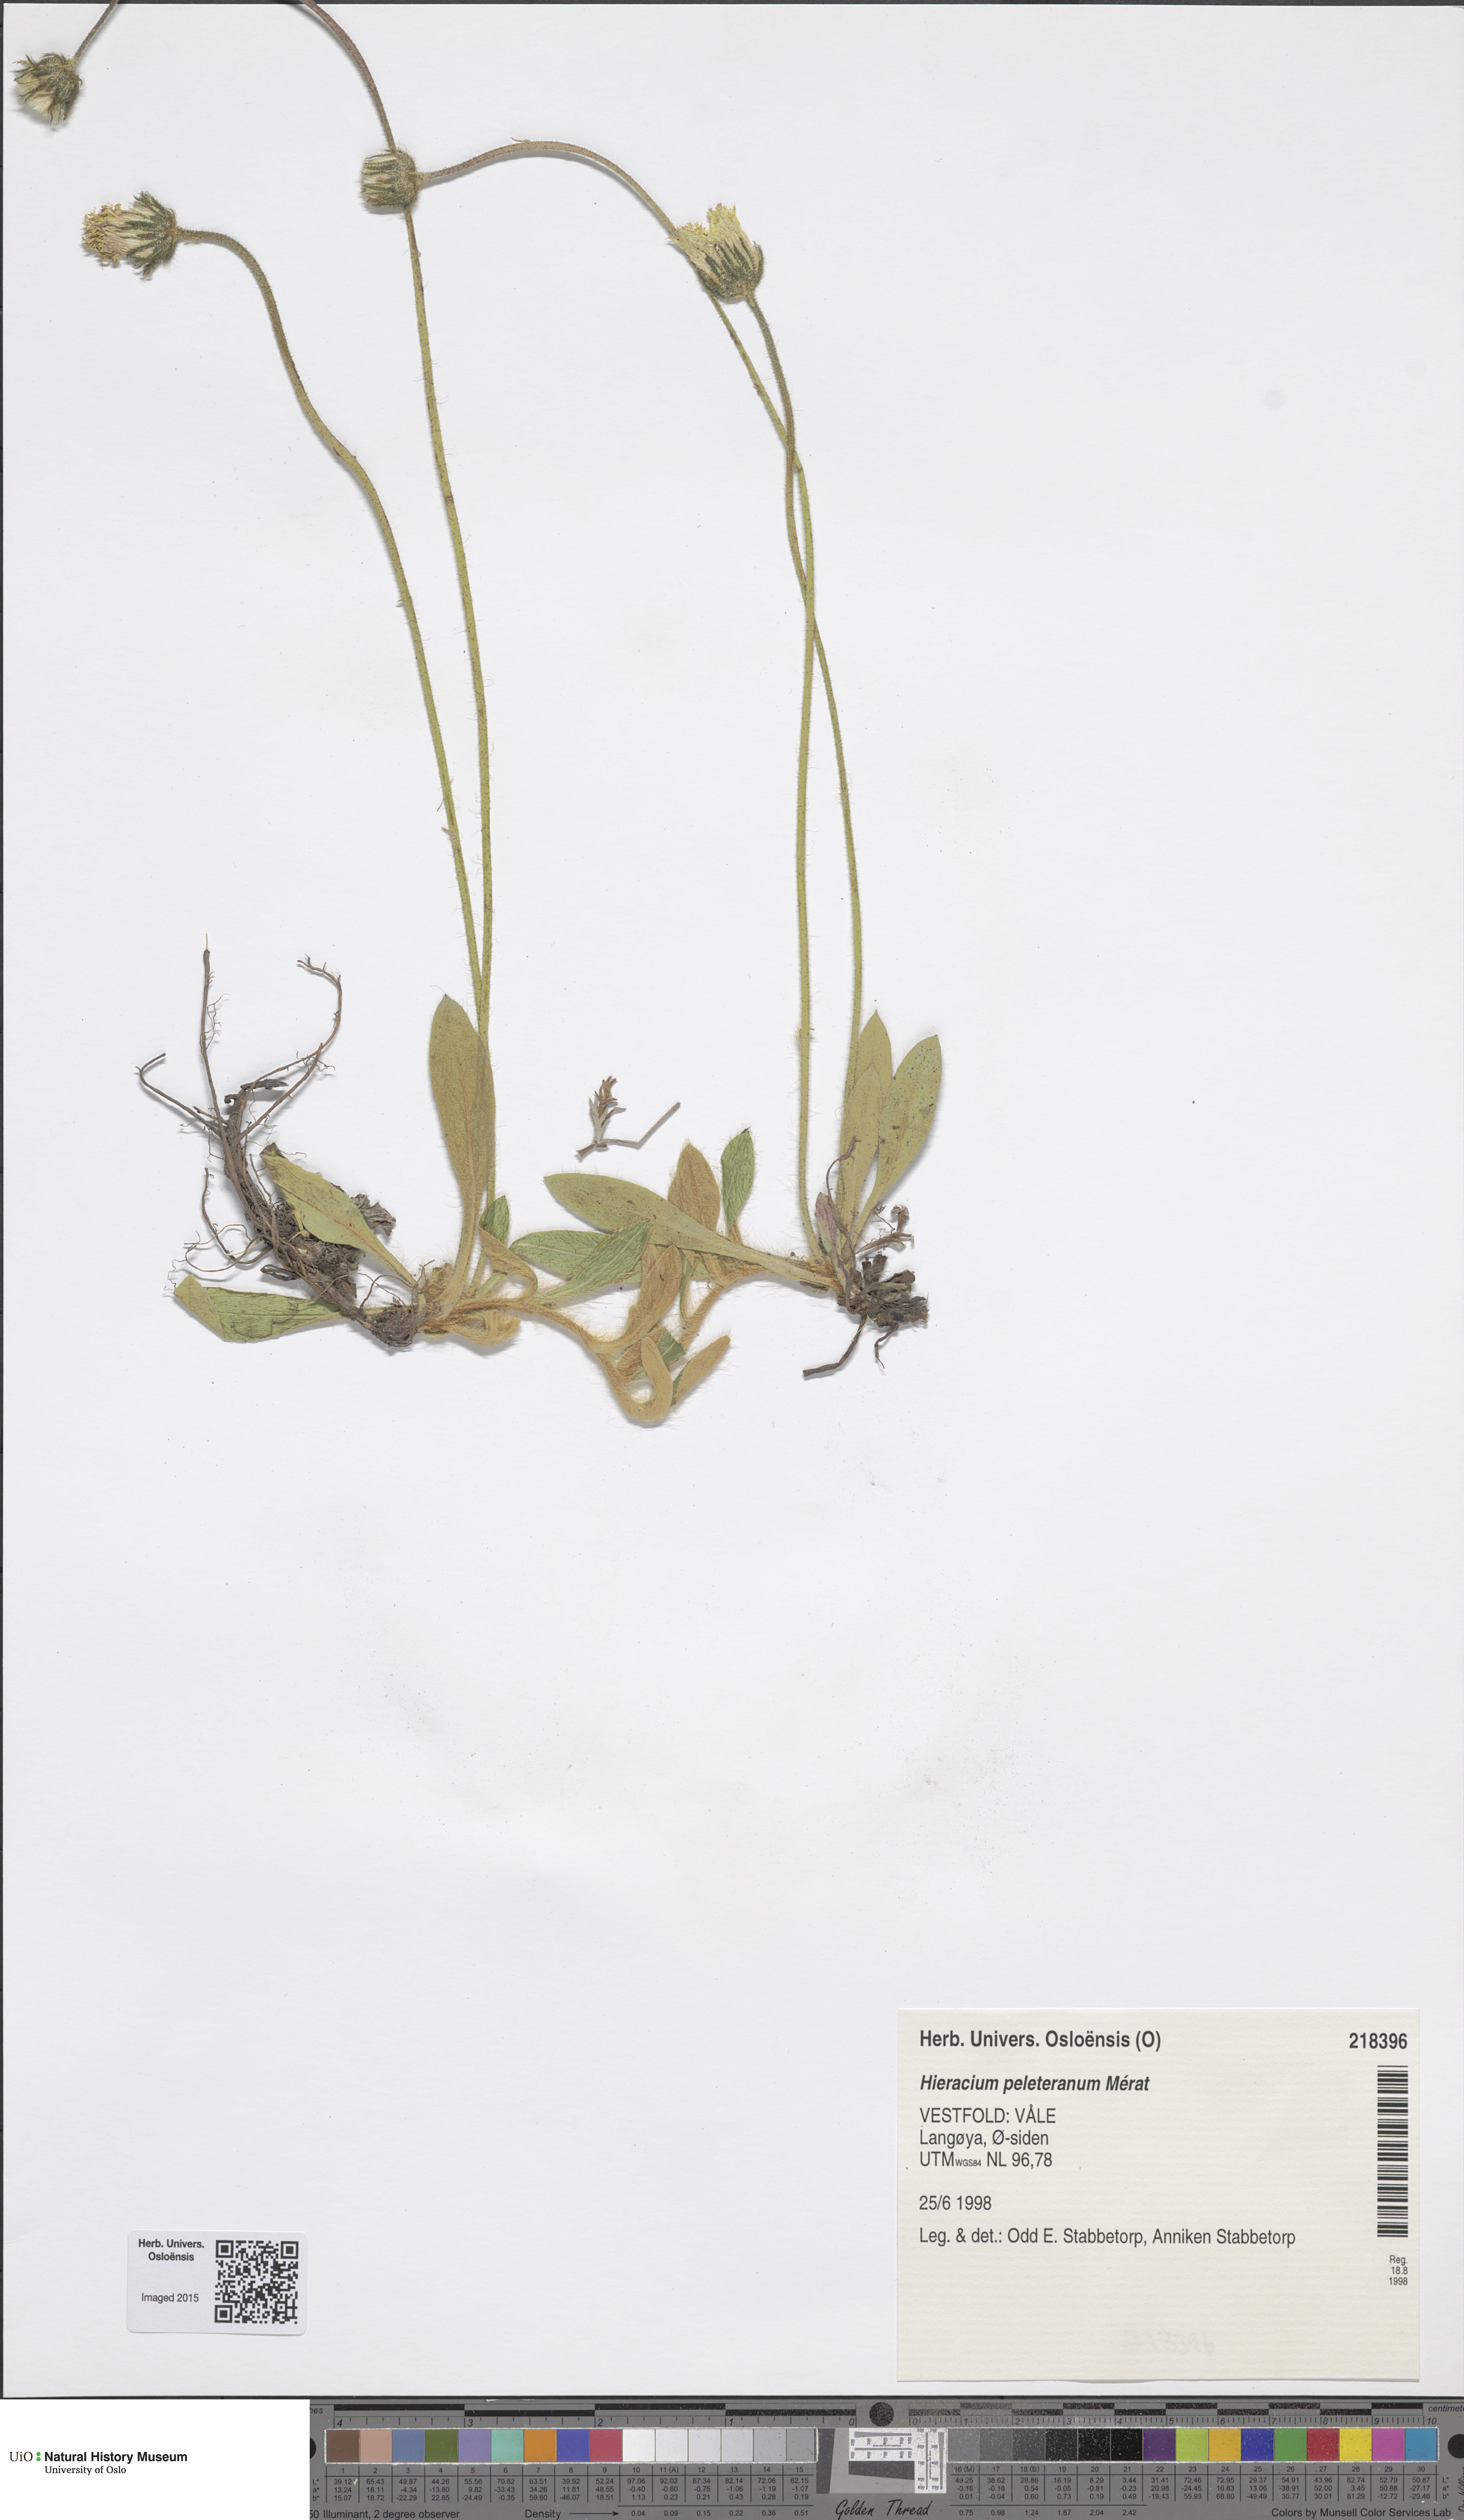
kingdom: Plantae
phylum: Tracheophyta
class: Magnoliopsida
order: Asterales
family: Asteraceae
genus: Pilosella
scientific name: Pilosella peleteriana
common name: Shaggy mouse-ear-hawkweed
